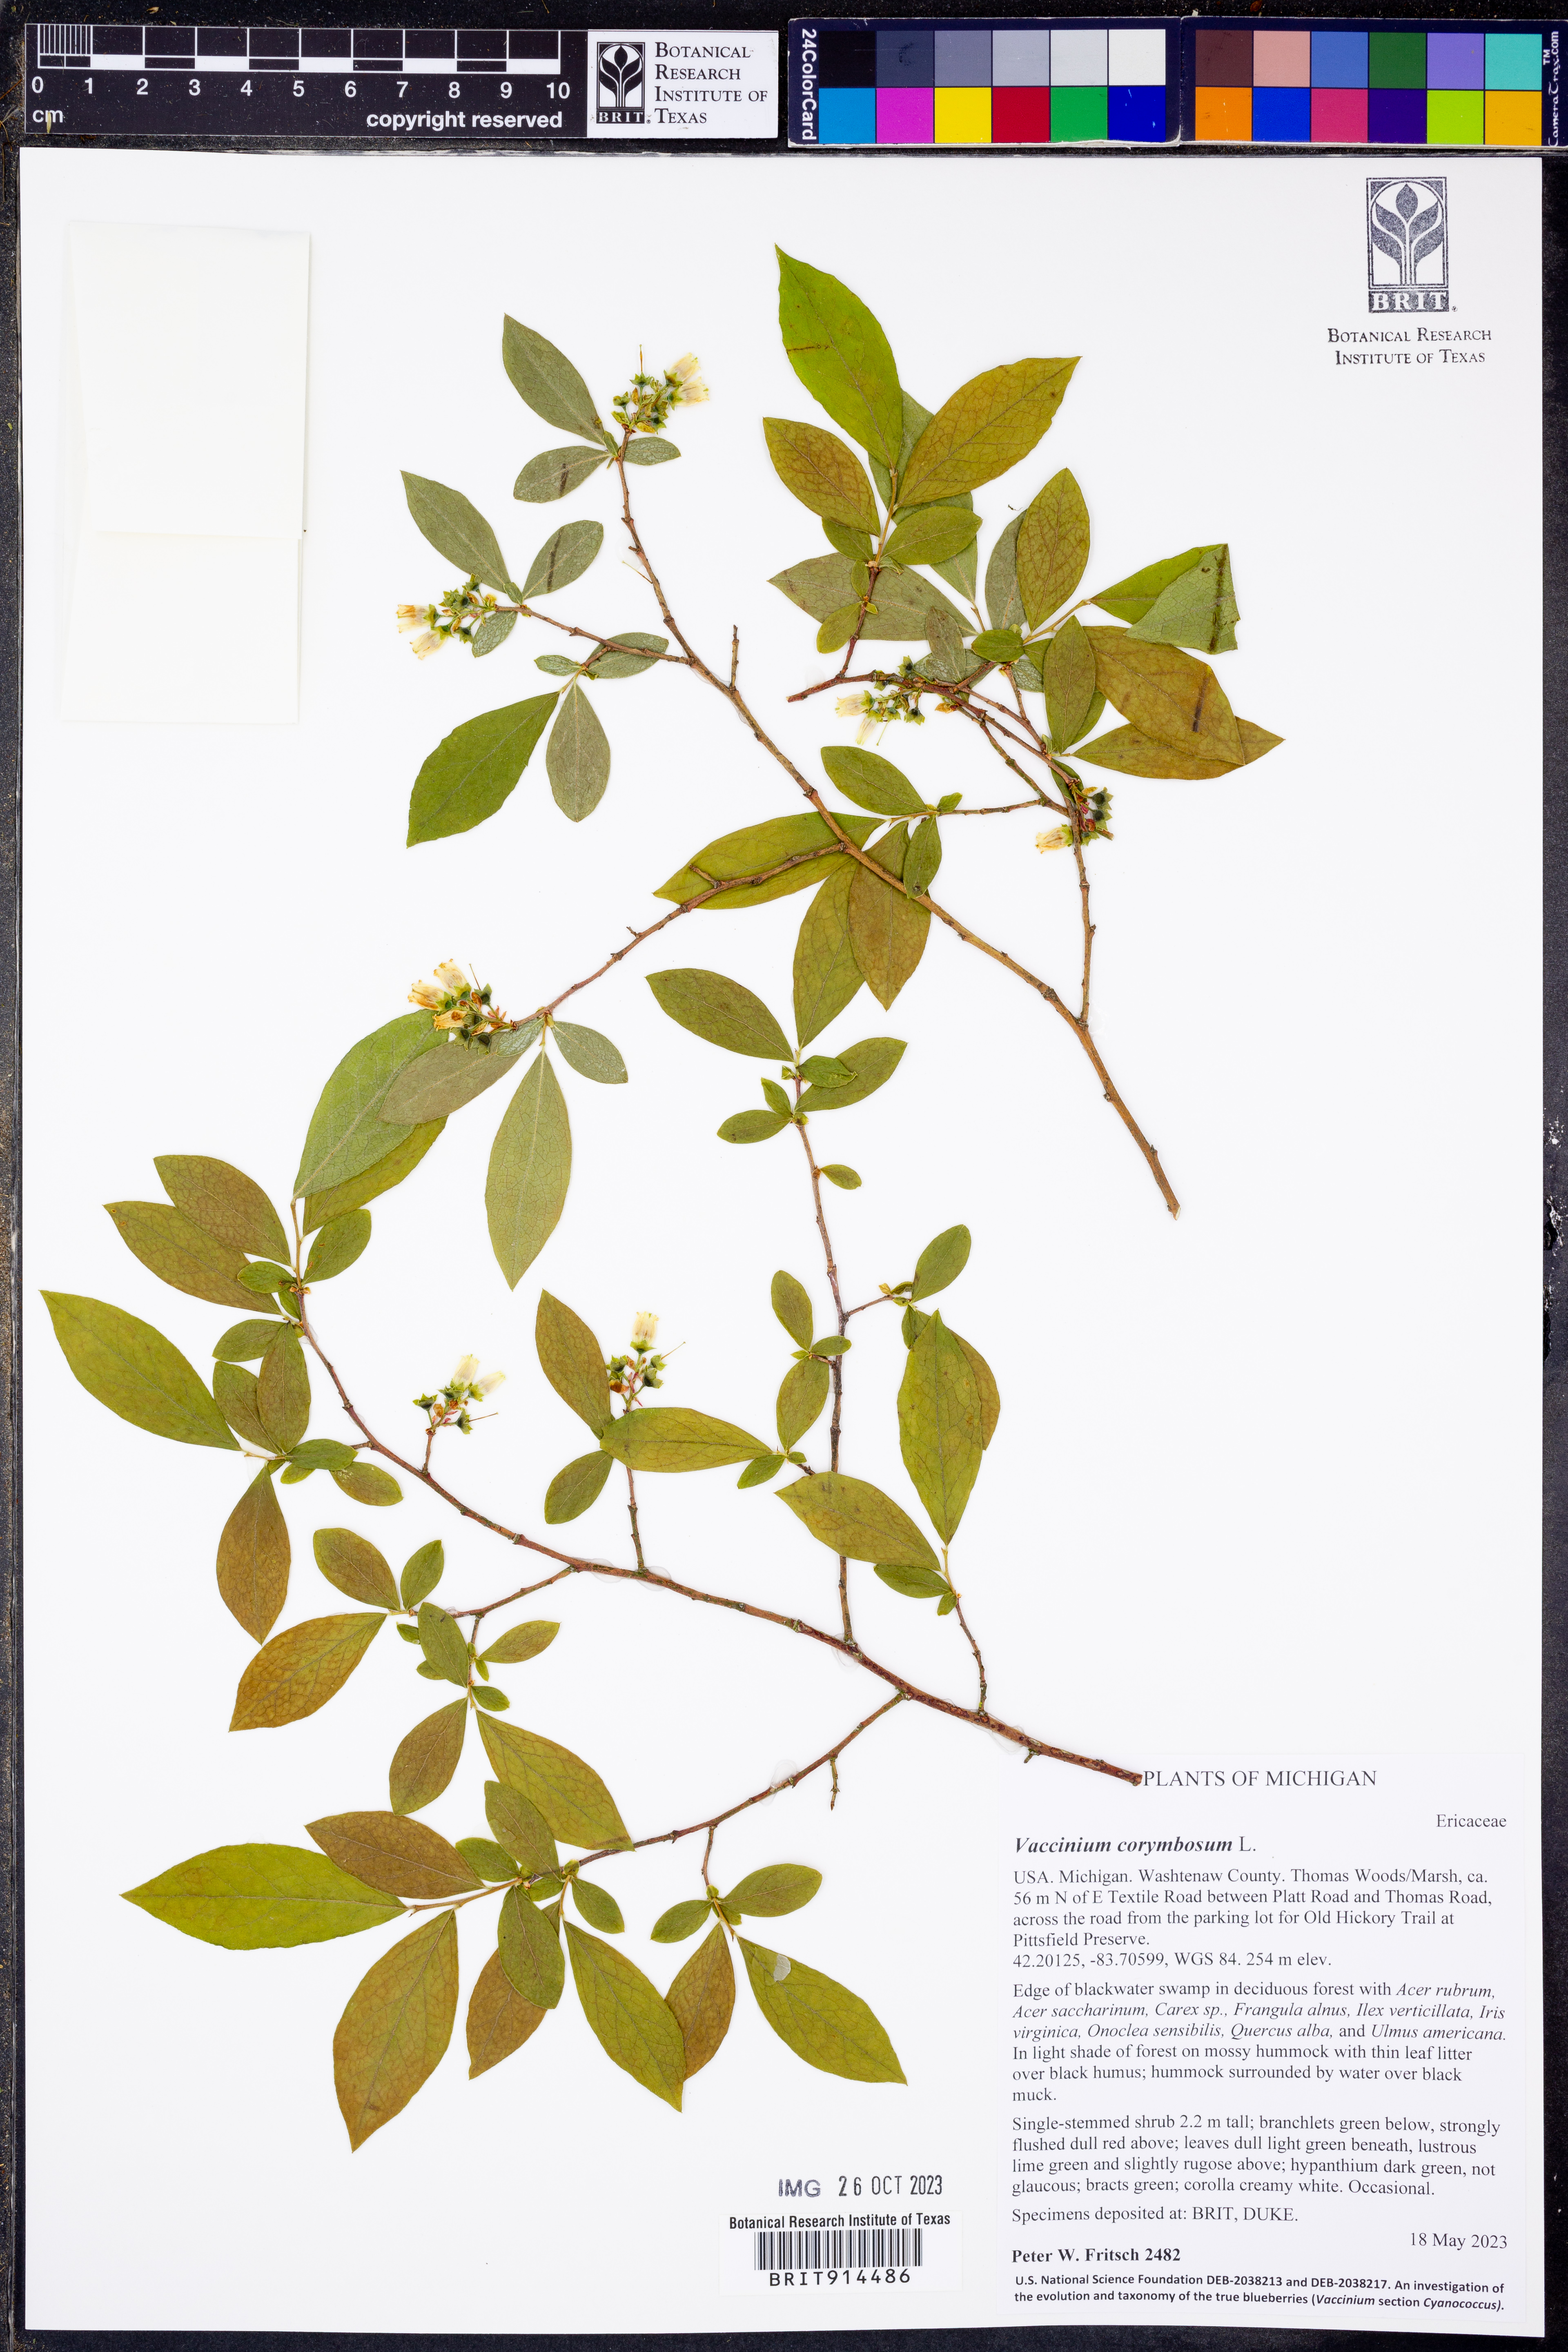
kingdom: Plantae
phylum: Tracheophyta
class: Magnoliopsida
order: Ericales
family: Ericaceae
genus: Vaccinium
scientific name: Vaccinium corymbosum
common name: Blueberry
